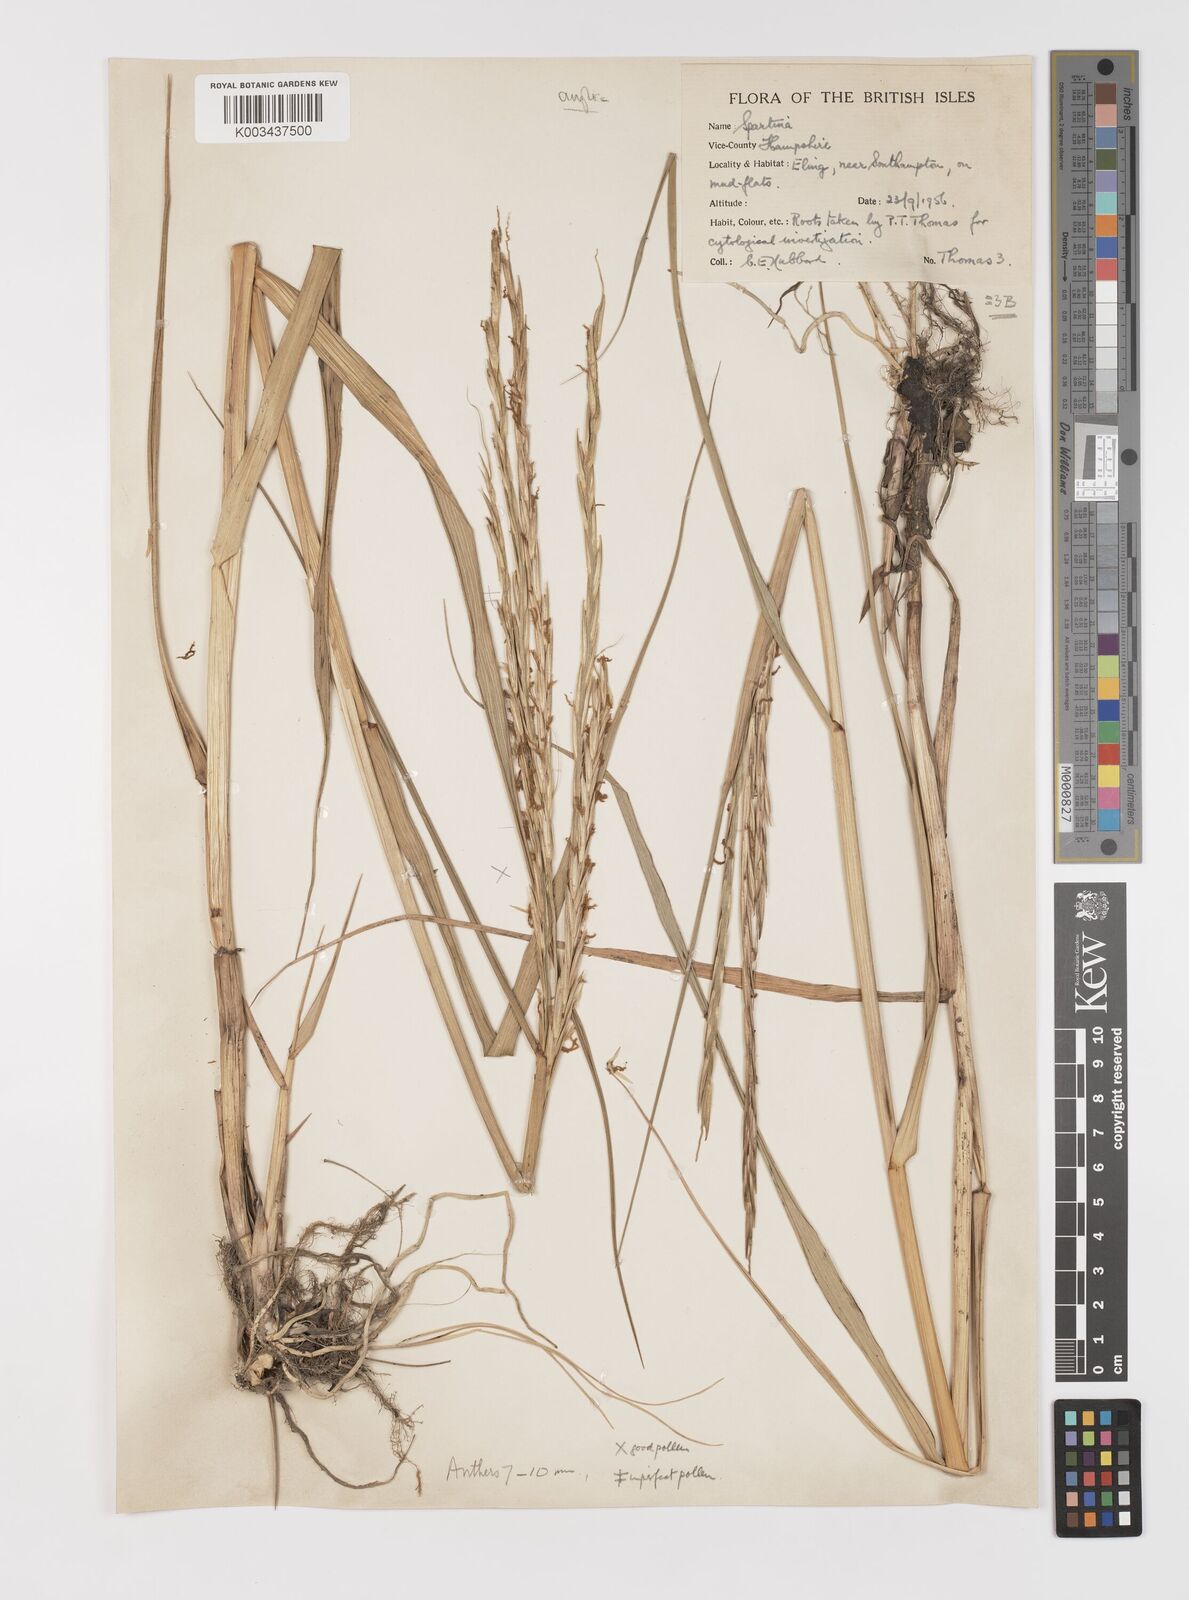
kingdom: Plantae
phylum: Tracheophyta
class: Liliopsida
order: Poales
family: Poaceae
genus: Sporobolus
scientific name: Sporobolus anglicus
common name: English cordgrass
